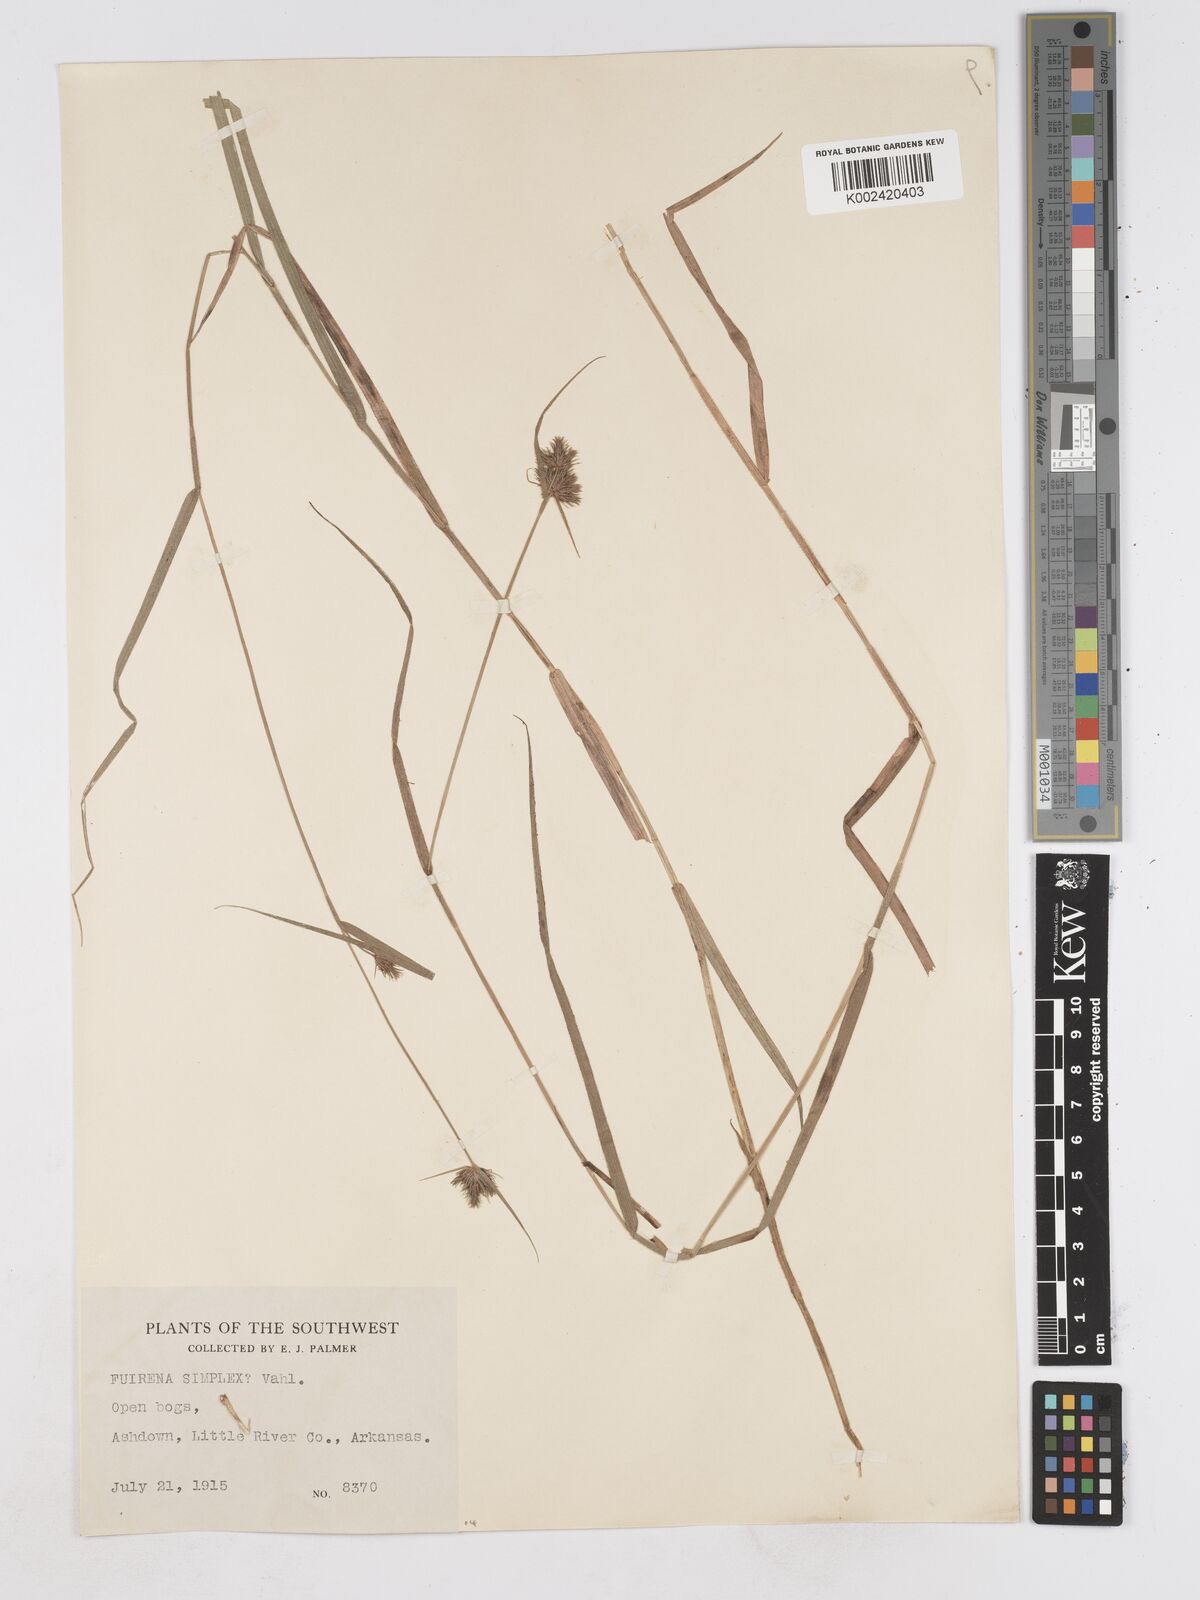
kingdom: Plantae
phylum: Tracheophyta
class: Liliopsida
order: Poales
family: Cyperaceae
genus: Fuirena
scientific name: Fuirena simplex
